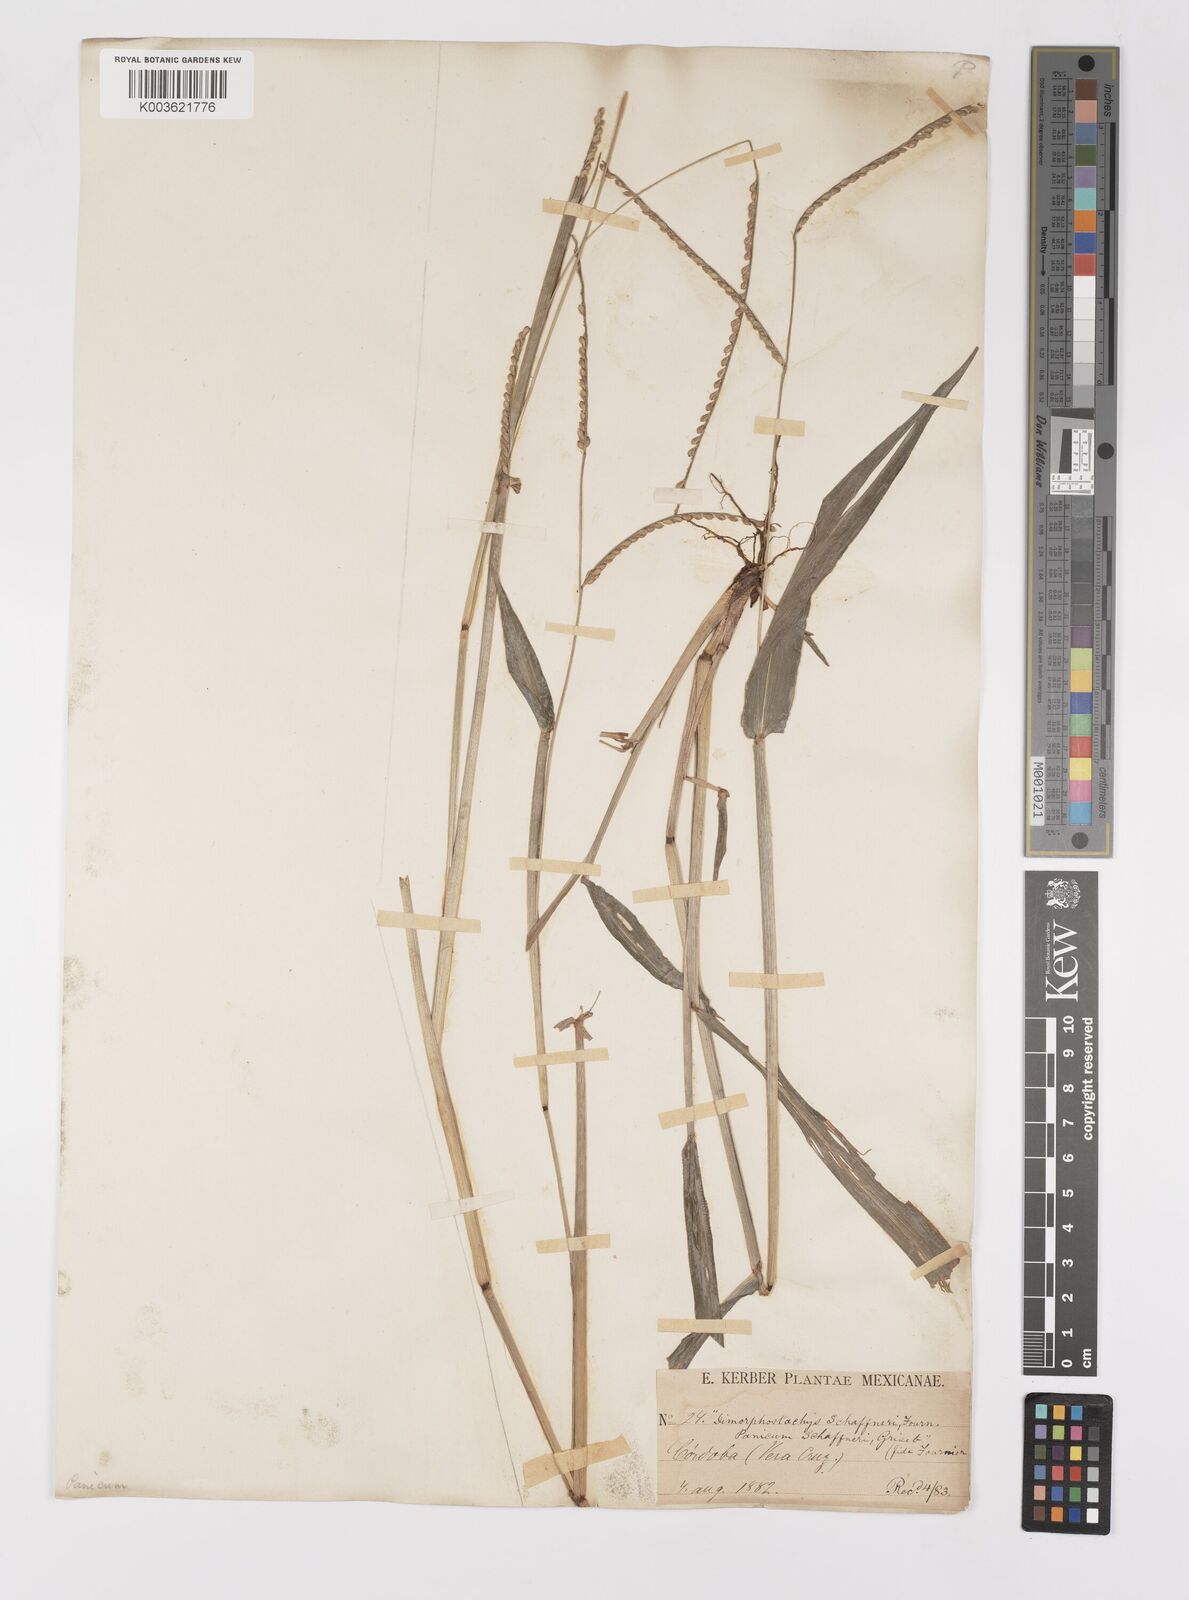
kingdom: Plantae
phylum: Tracheophyta
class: Liliopsida
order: Poales
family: Poaceae
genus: Paspalum
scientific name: Paspalum variabile
